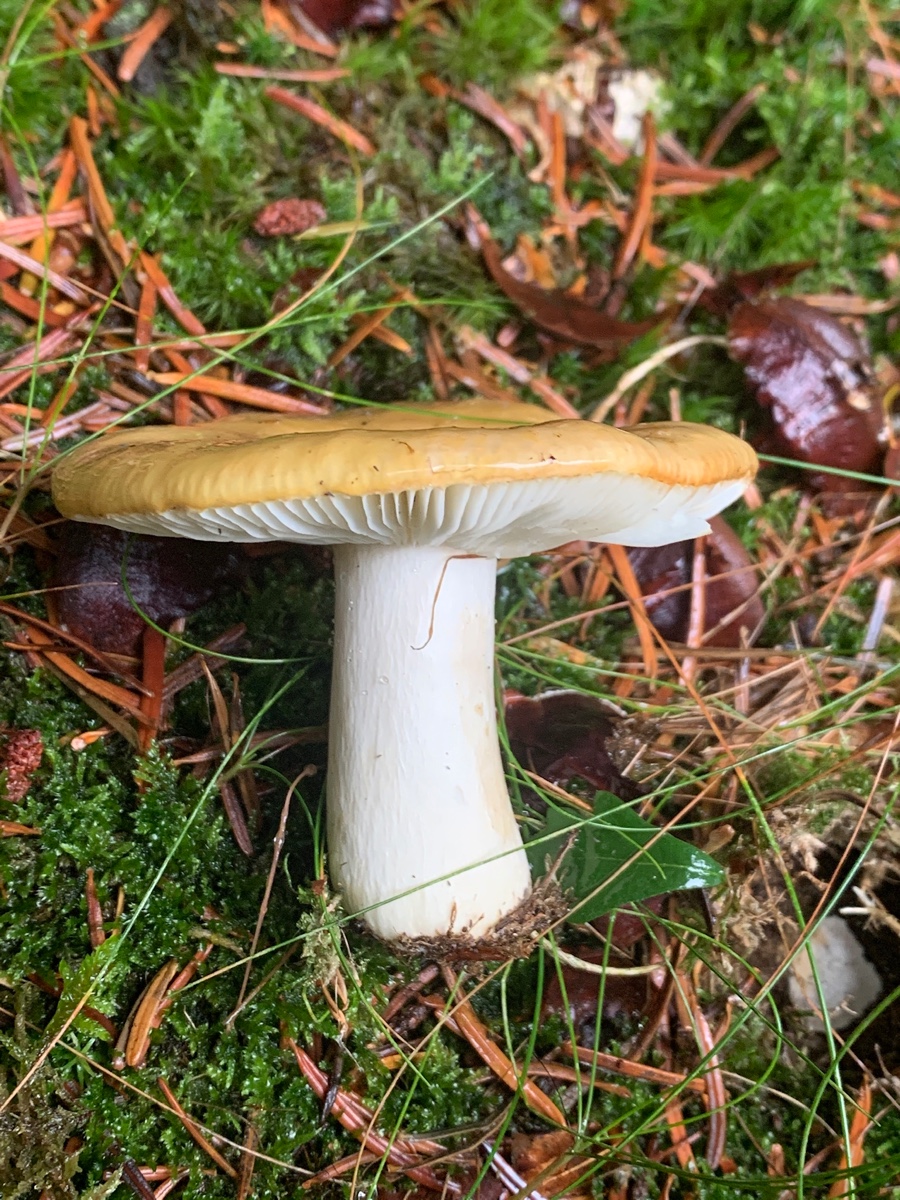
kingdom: Fungi
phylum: Basidiomycota
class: Agaricomycetes
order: Russulales
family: Russulaceae
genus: Russula
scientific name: Russula ochroleuca
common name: okkergul skørhat
